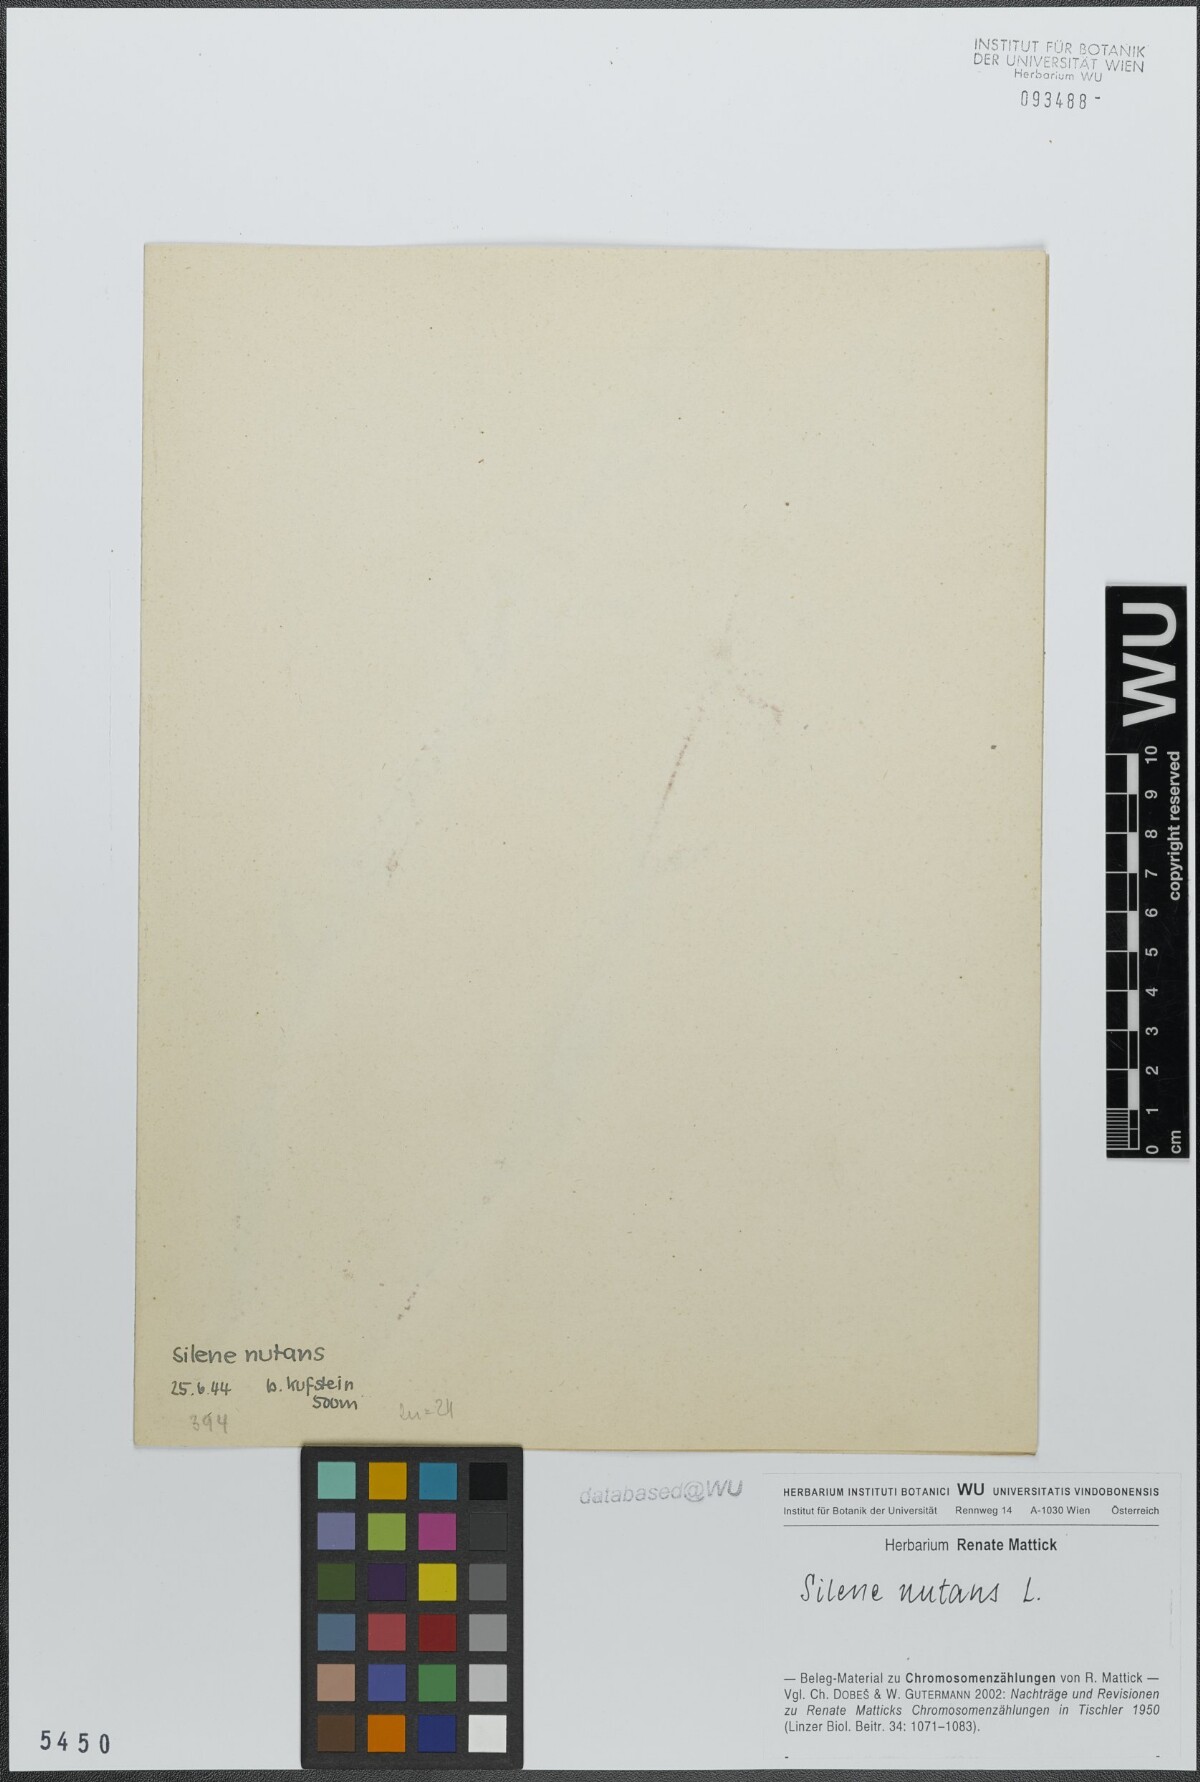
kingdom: Plantae
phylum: Tracheophyta
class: Magnoliopsida
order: Caryophyllales
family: Caryophyllaceae
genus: Silene
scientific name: Silene nutans
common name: Nottingham catchfly
